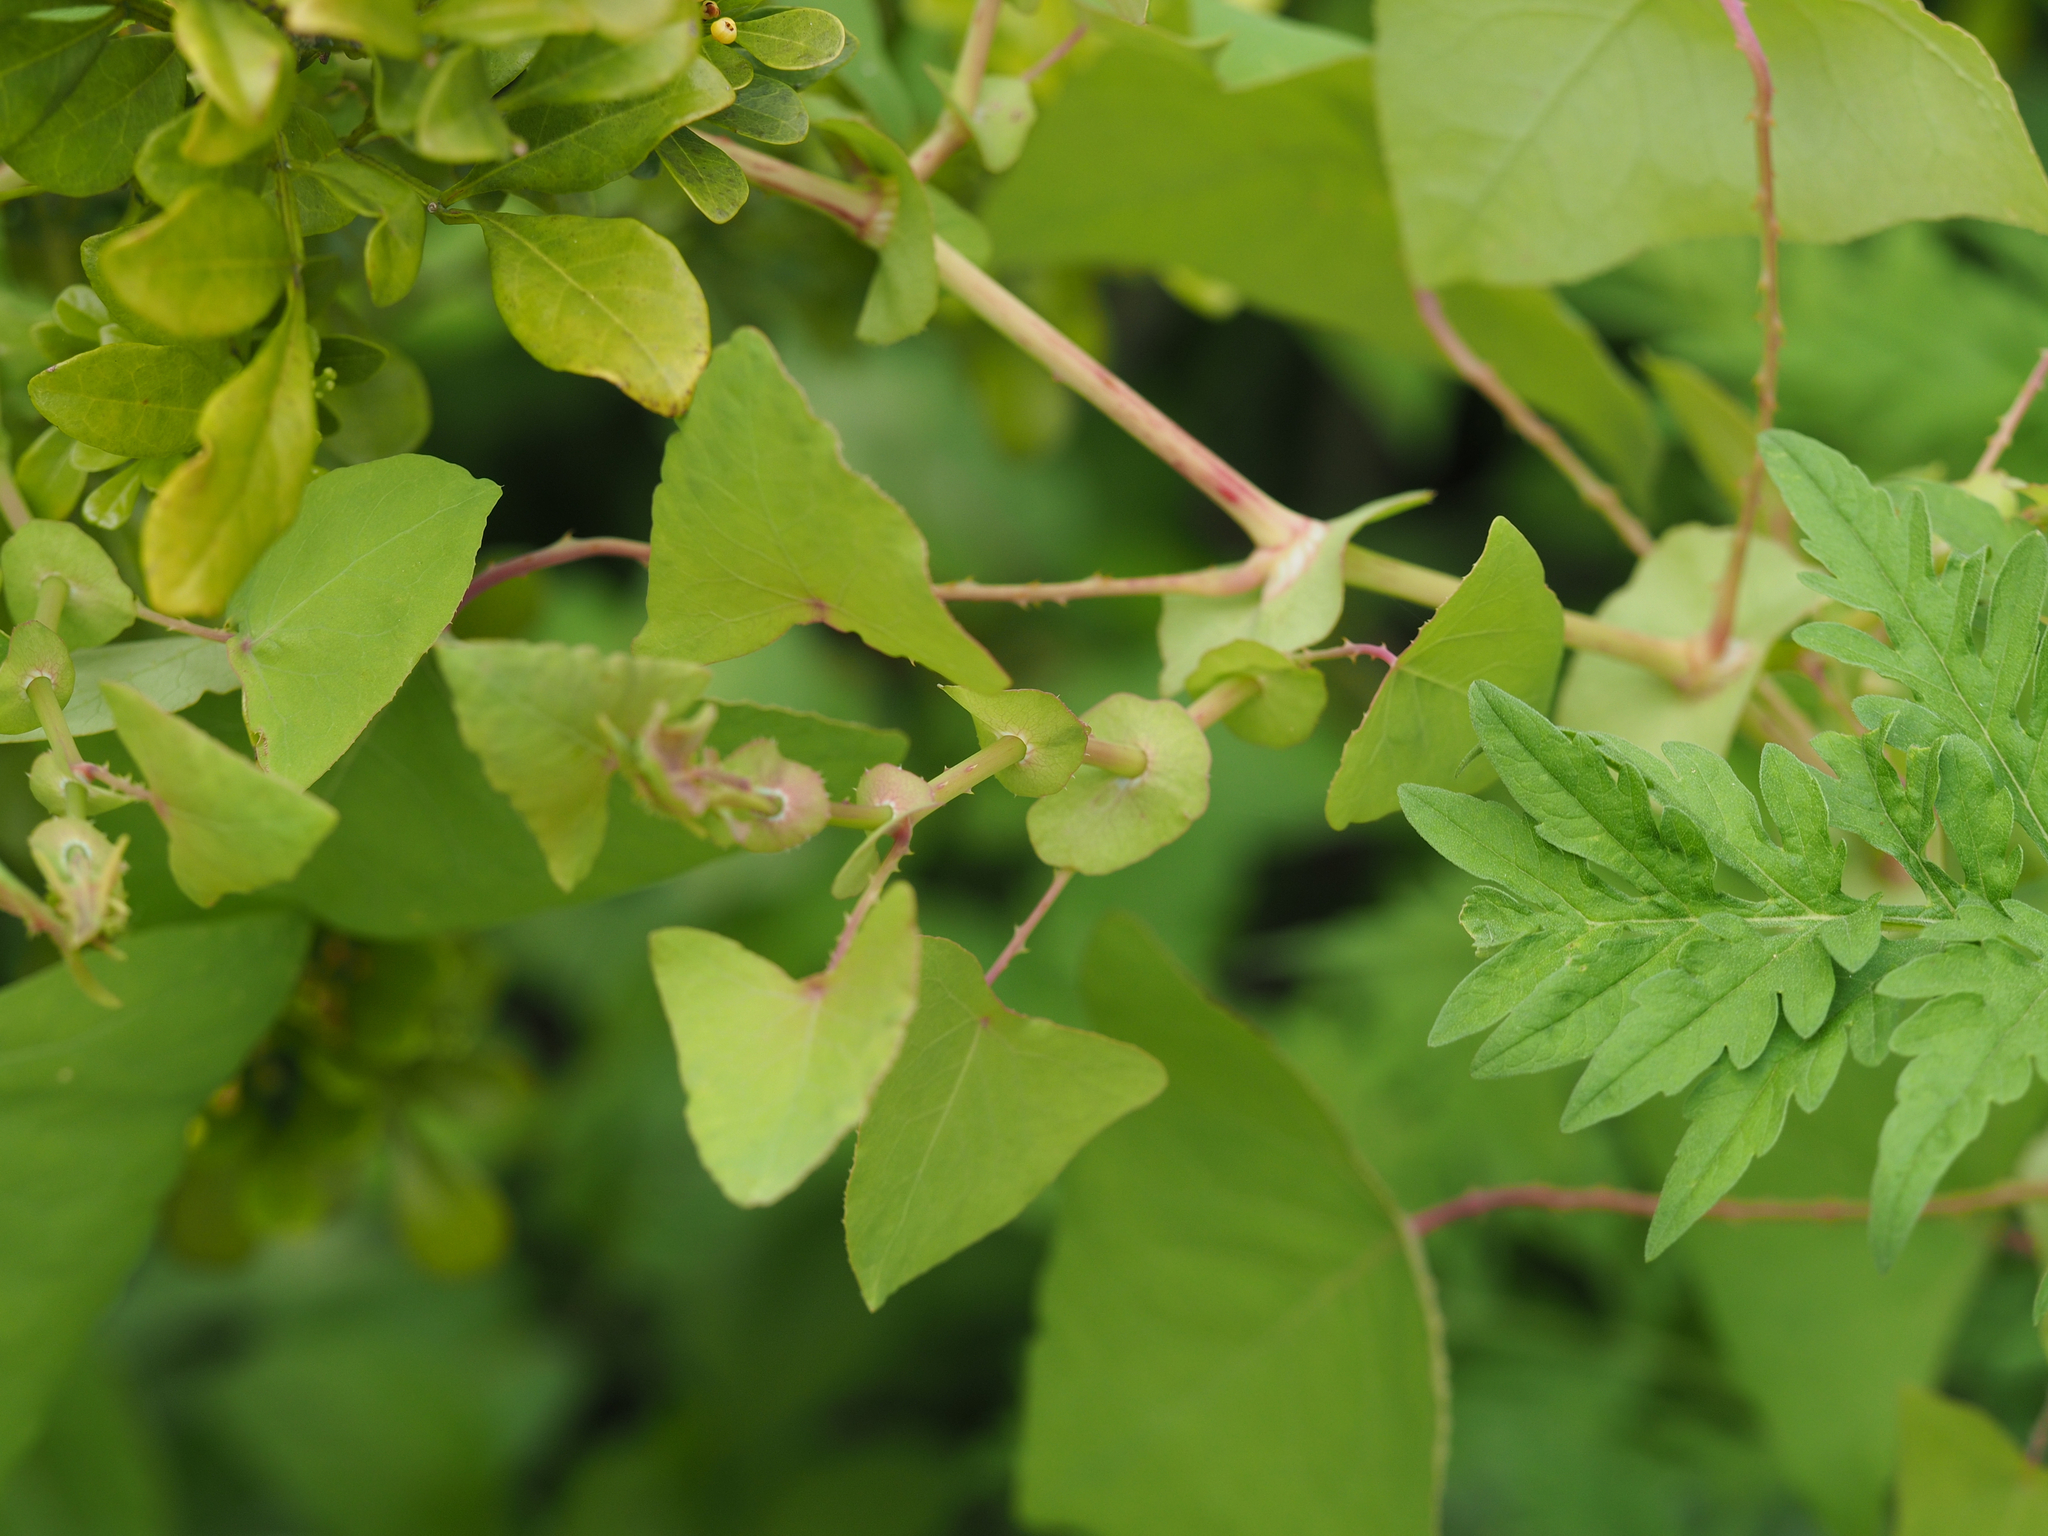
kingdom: Plantae
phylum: Tracheophyta
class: Magnoliopsida
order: Caryophyllales
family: Polygonaceae
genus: Persicaria
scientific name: Persicaria perfoliata
